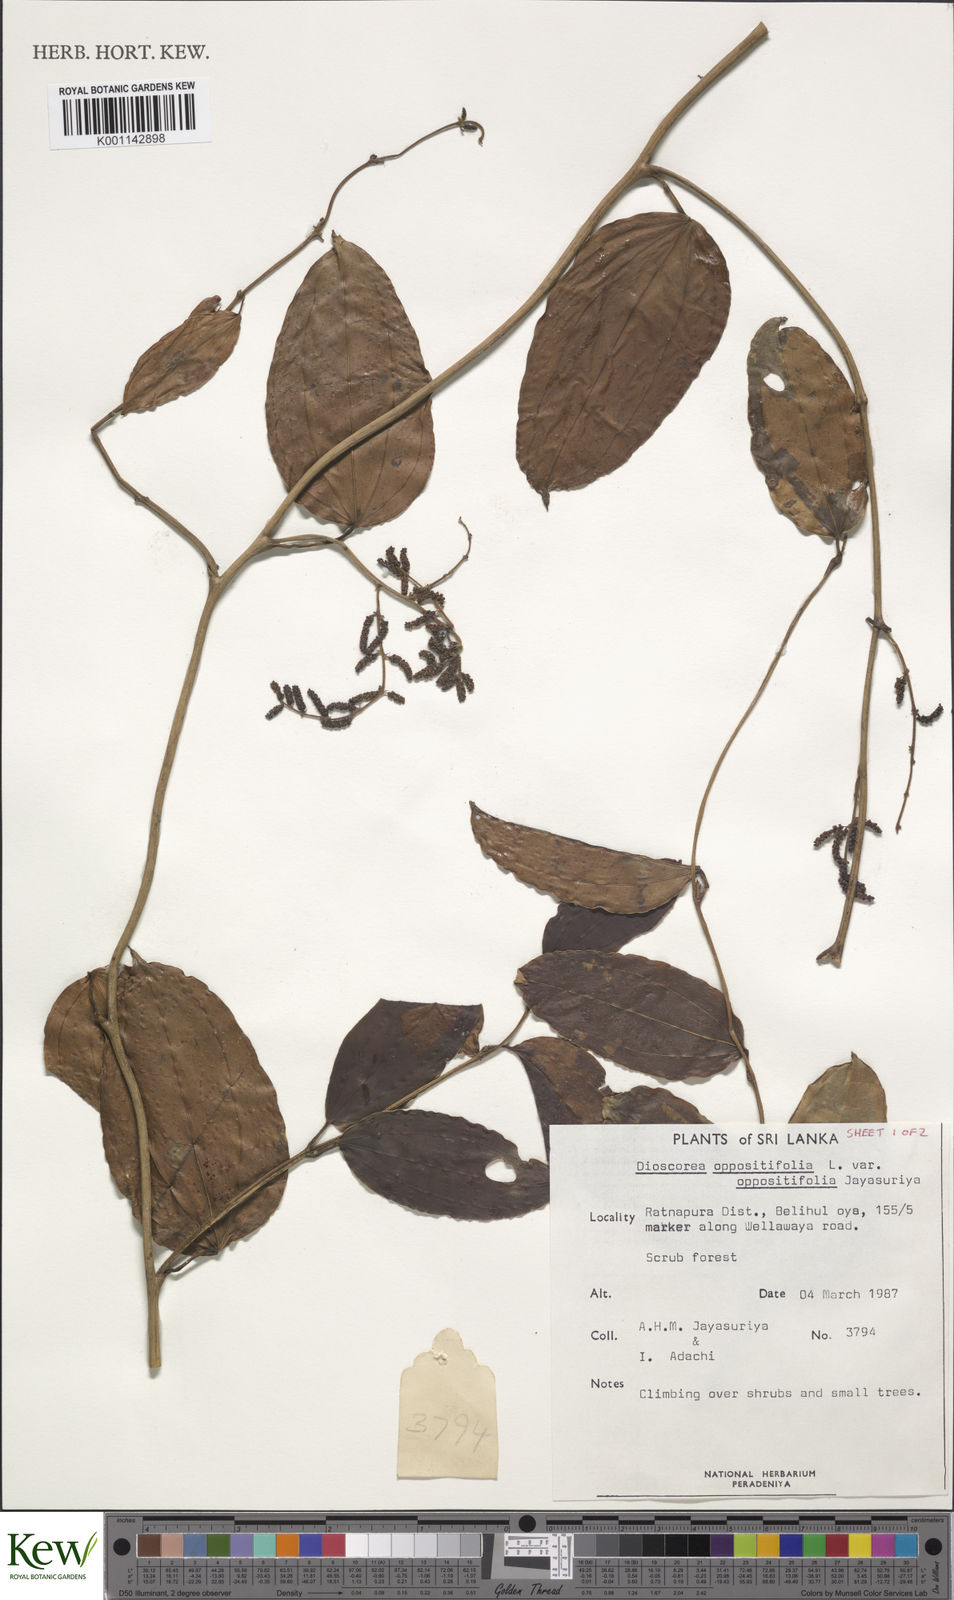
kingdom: Plantae
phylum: Tracheophyta
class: Liliopsida
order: Dioscoreales
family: Dioscoreaceae
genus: Dioscorea
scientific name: Dioscorea oppositifolia
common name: Chinese yam
